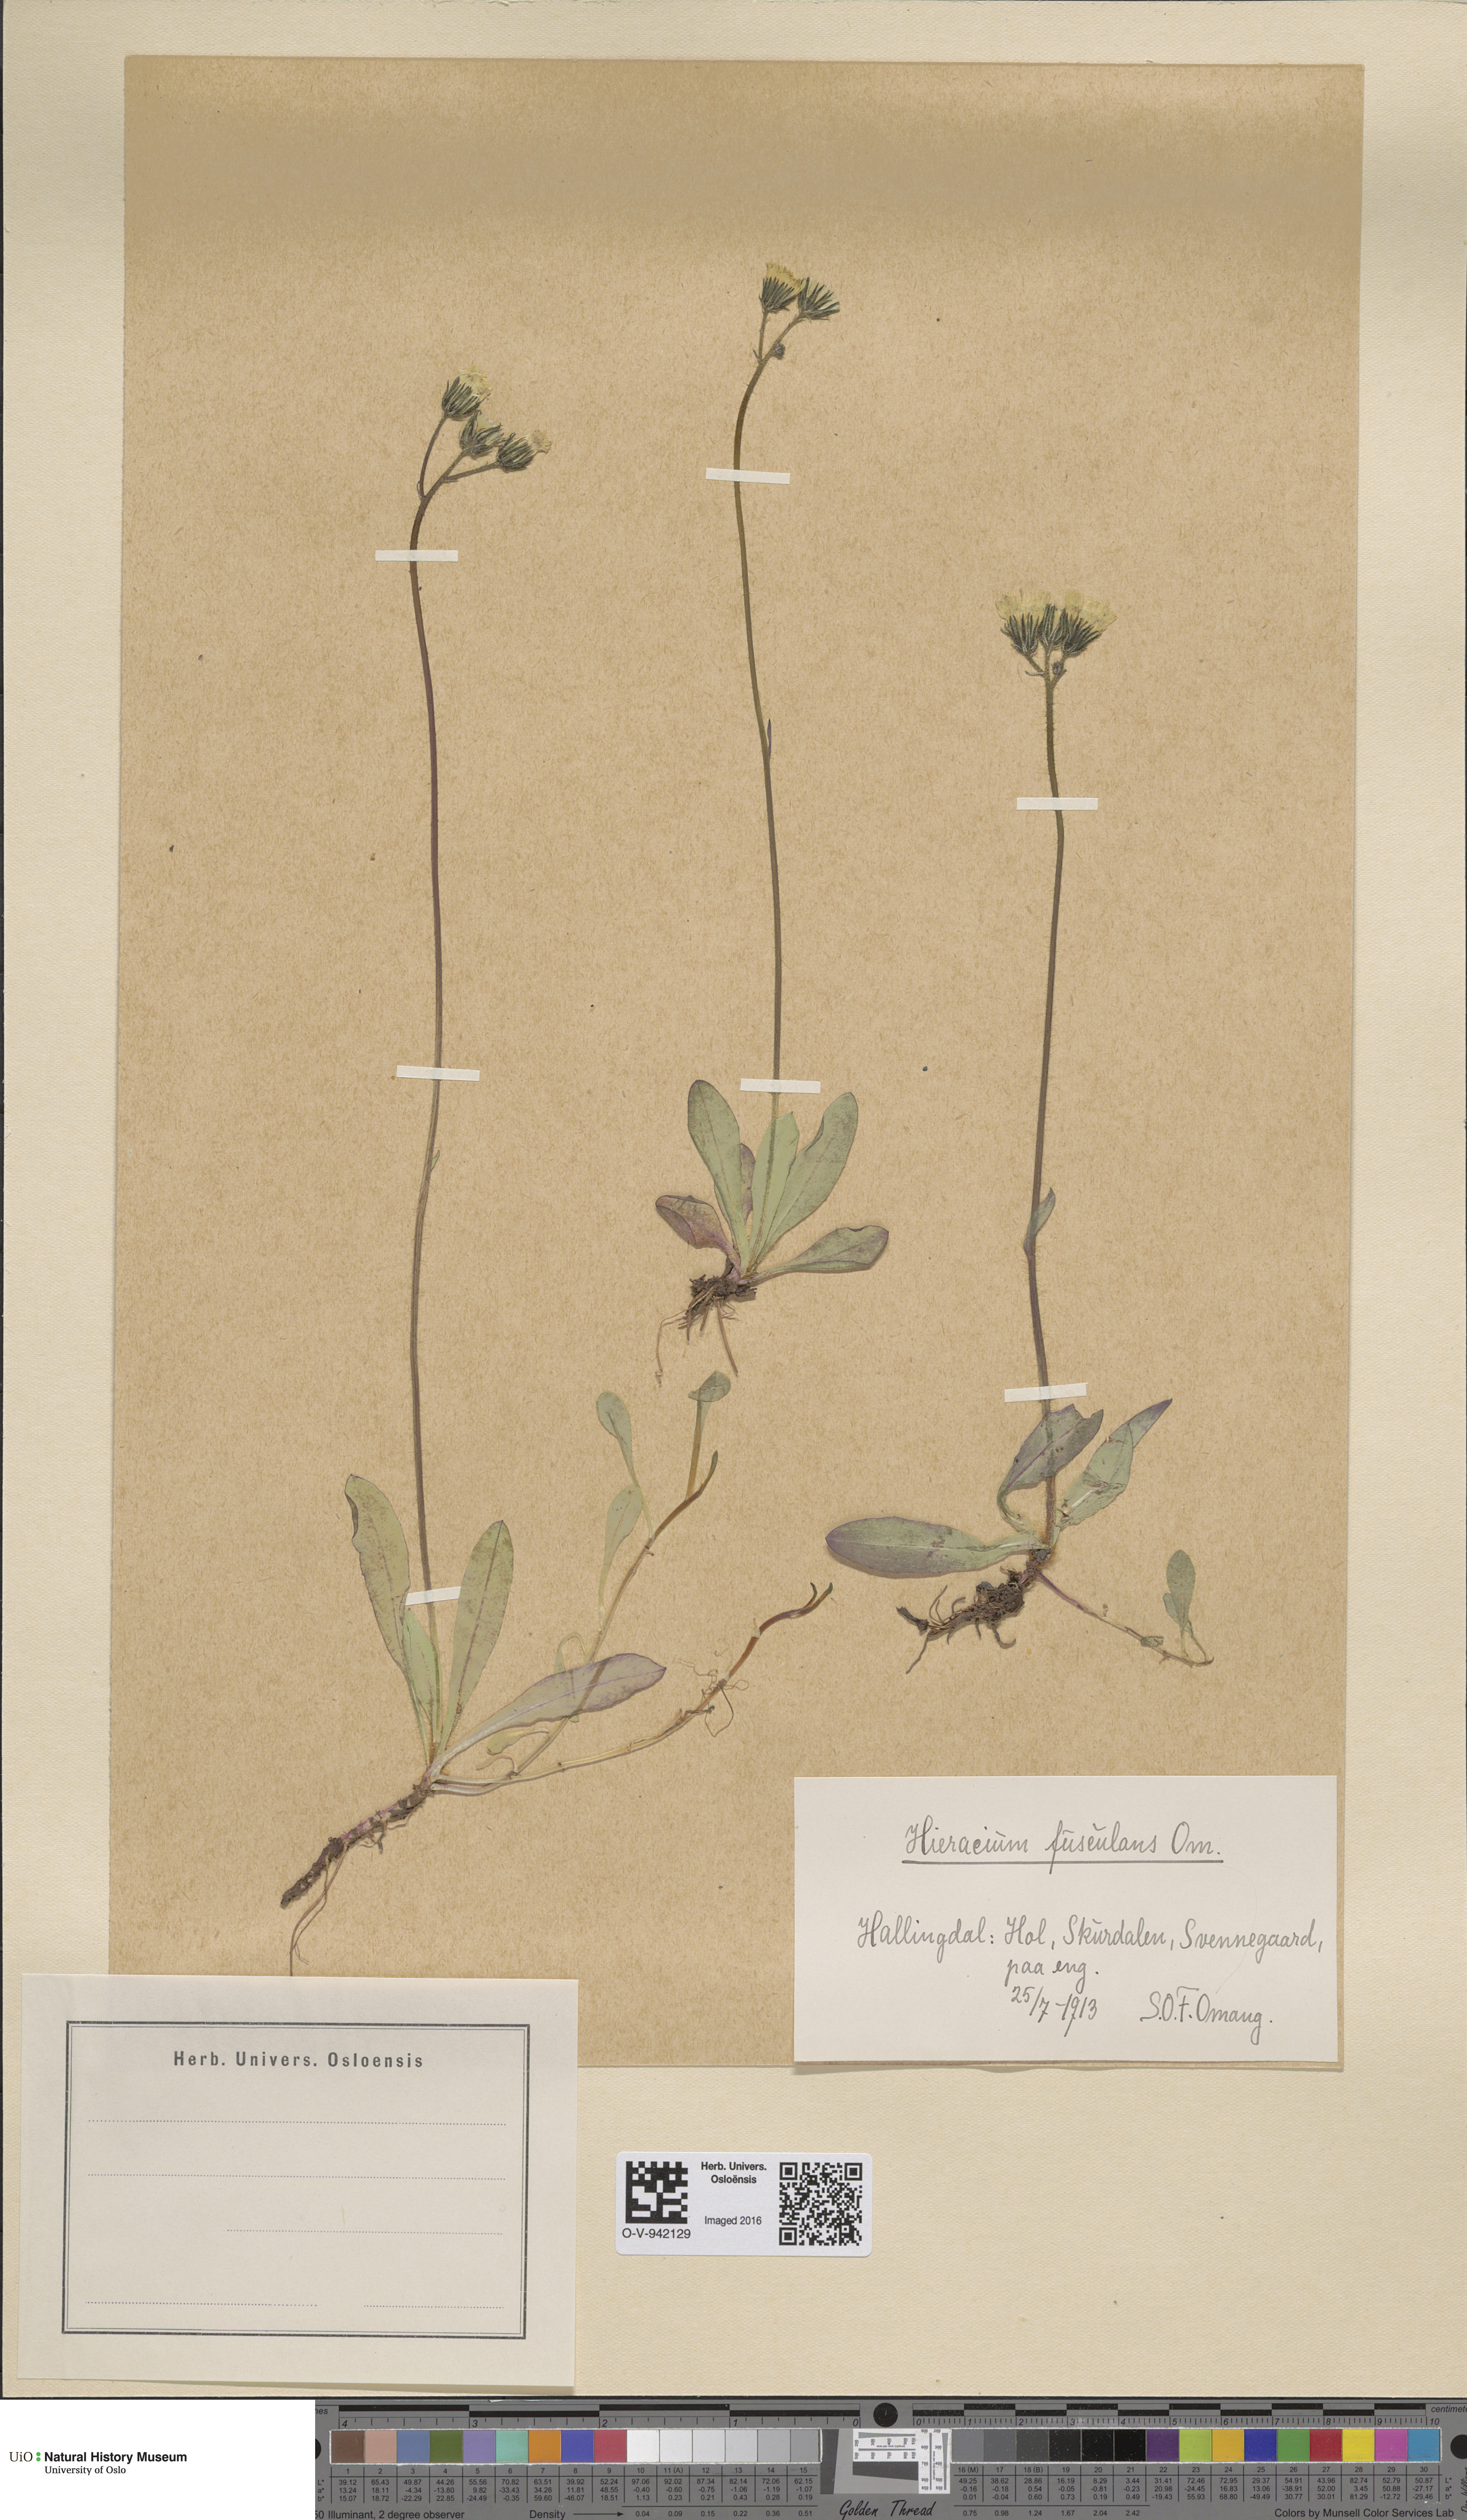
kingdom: Plantae
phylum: Tracheophyta
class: Magnoliopsida
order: Asterales
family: Asteraceae
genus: Pilosella
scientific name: Pilosella dubia
